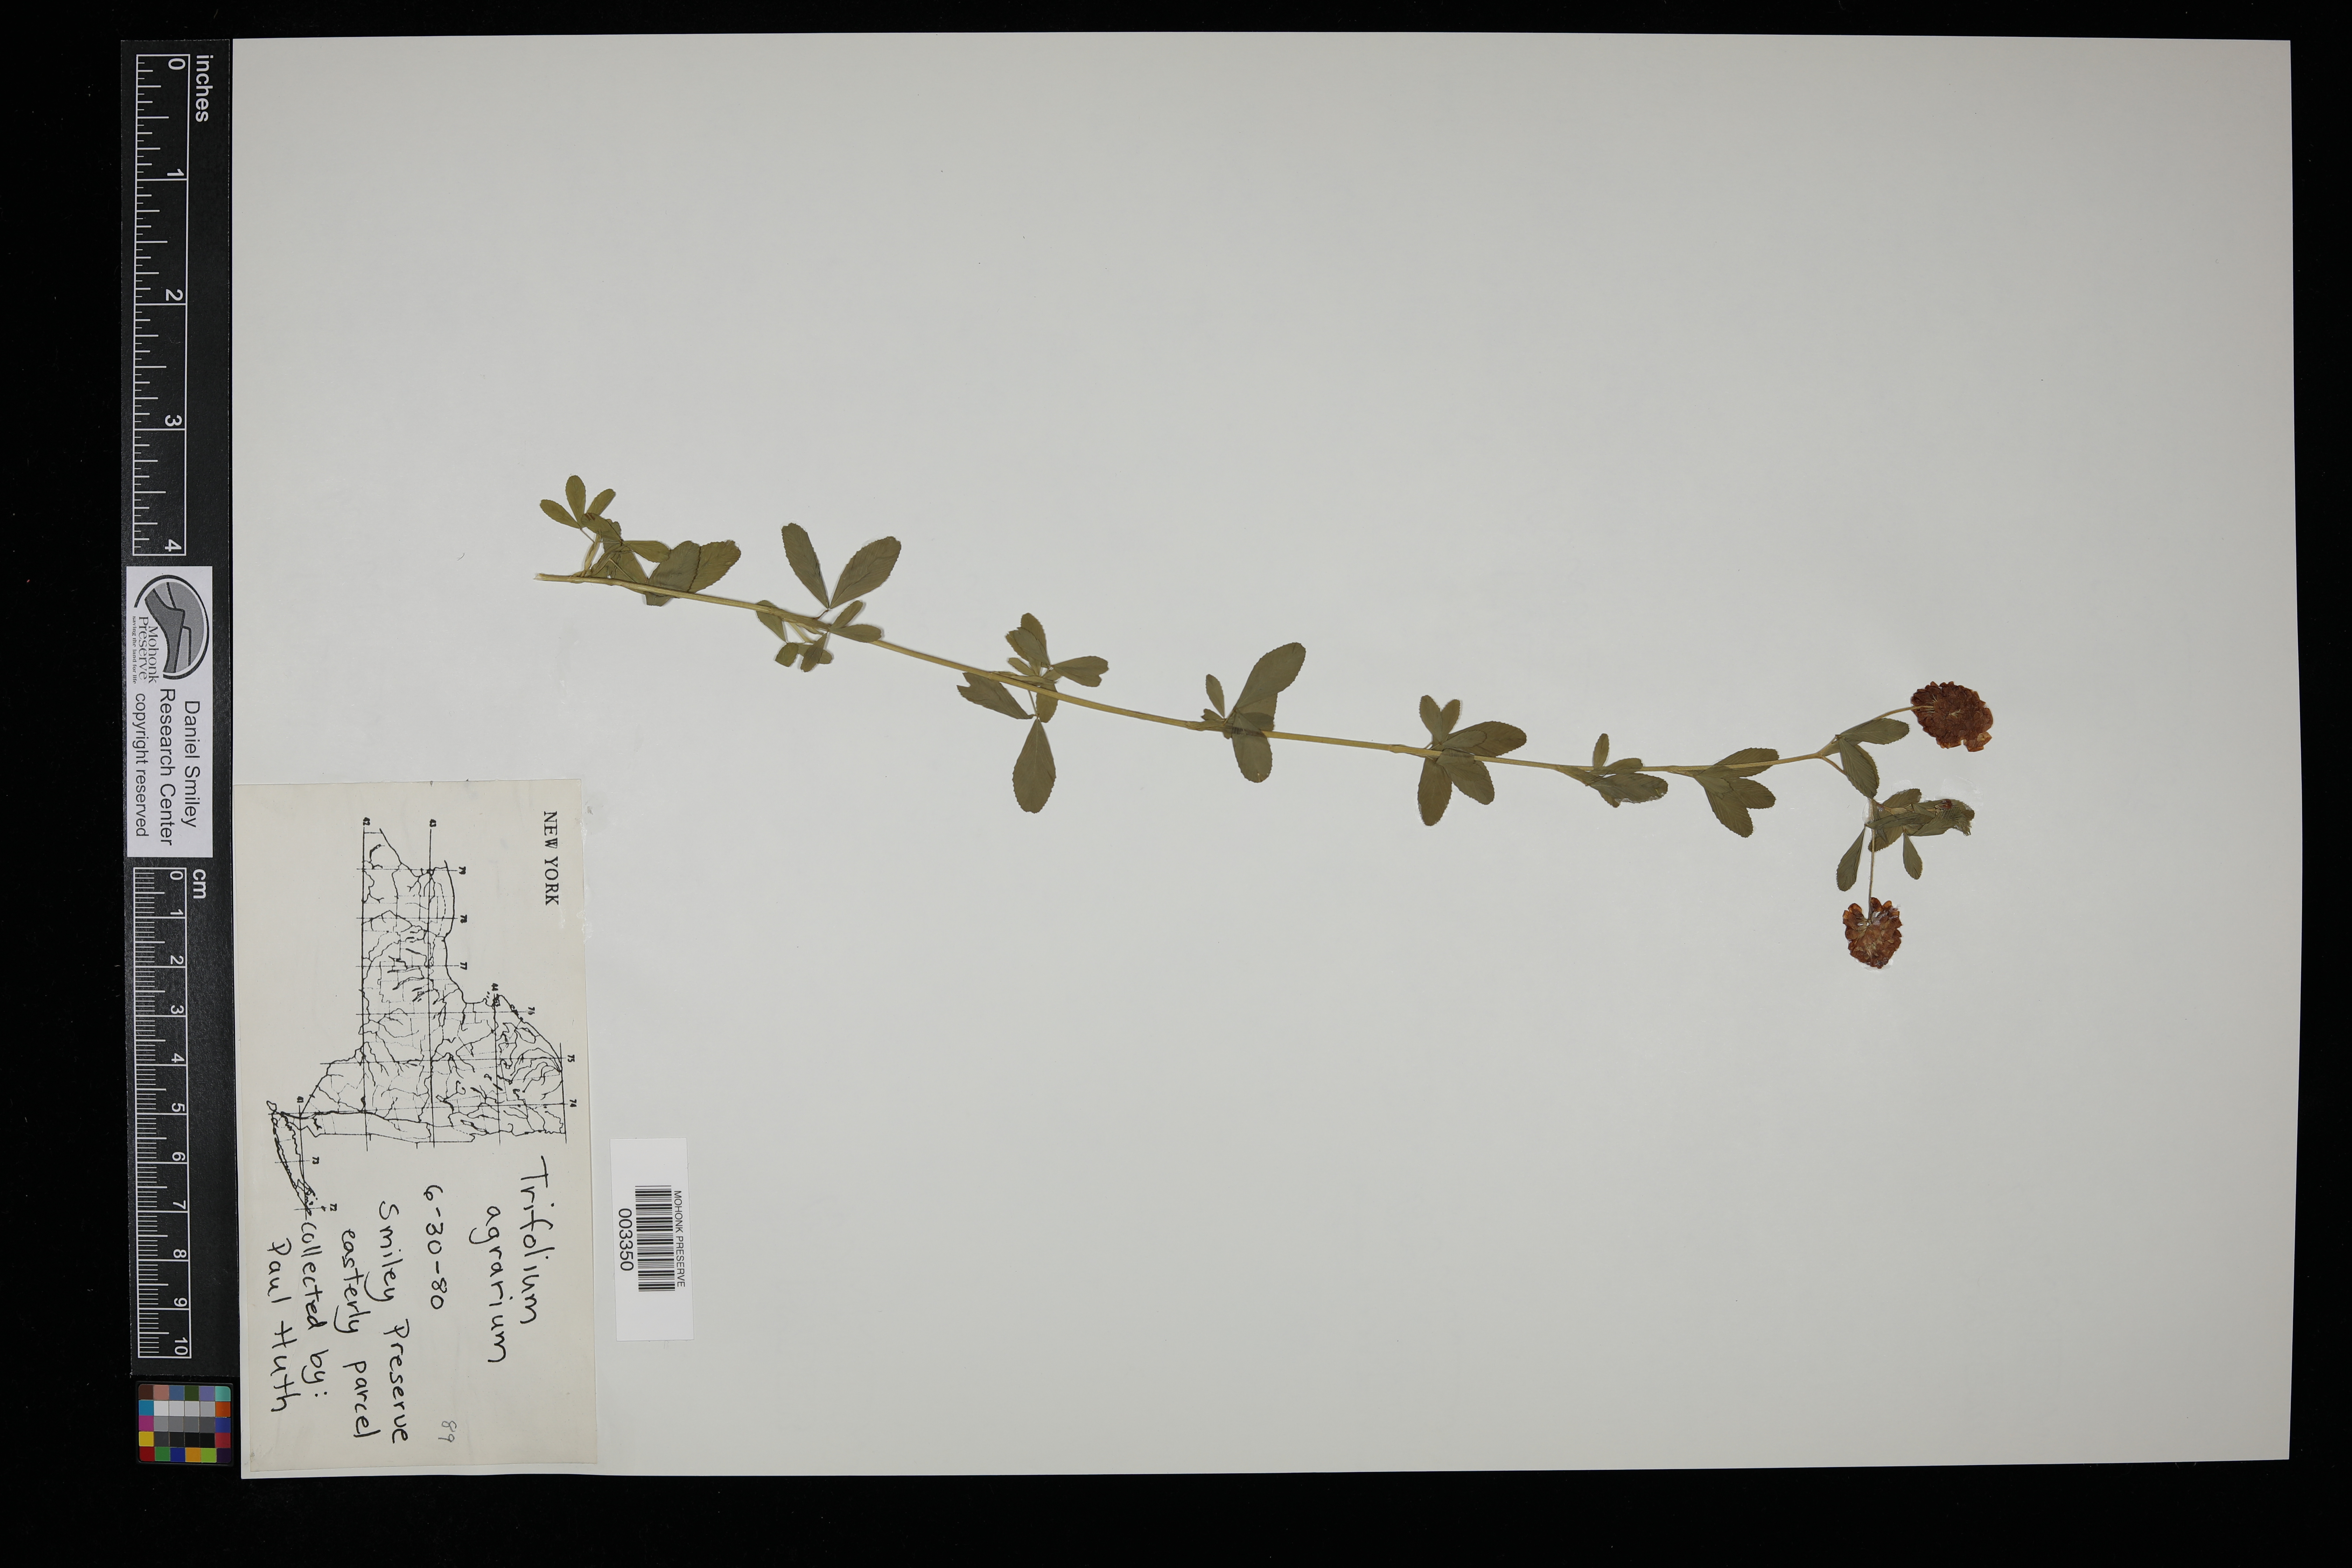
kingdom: Plantae
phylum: Tracheophyta
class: Magnoliopsida
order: Fabales
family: Fabaceae
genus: Trifolium
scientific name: Trifolium aureum
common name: Golden clover
